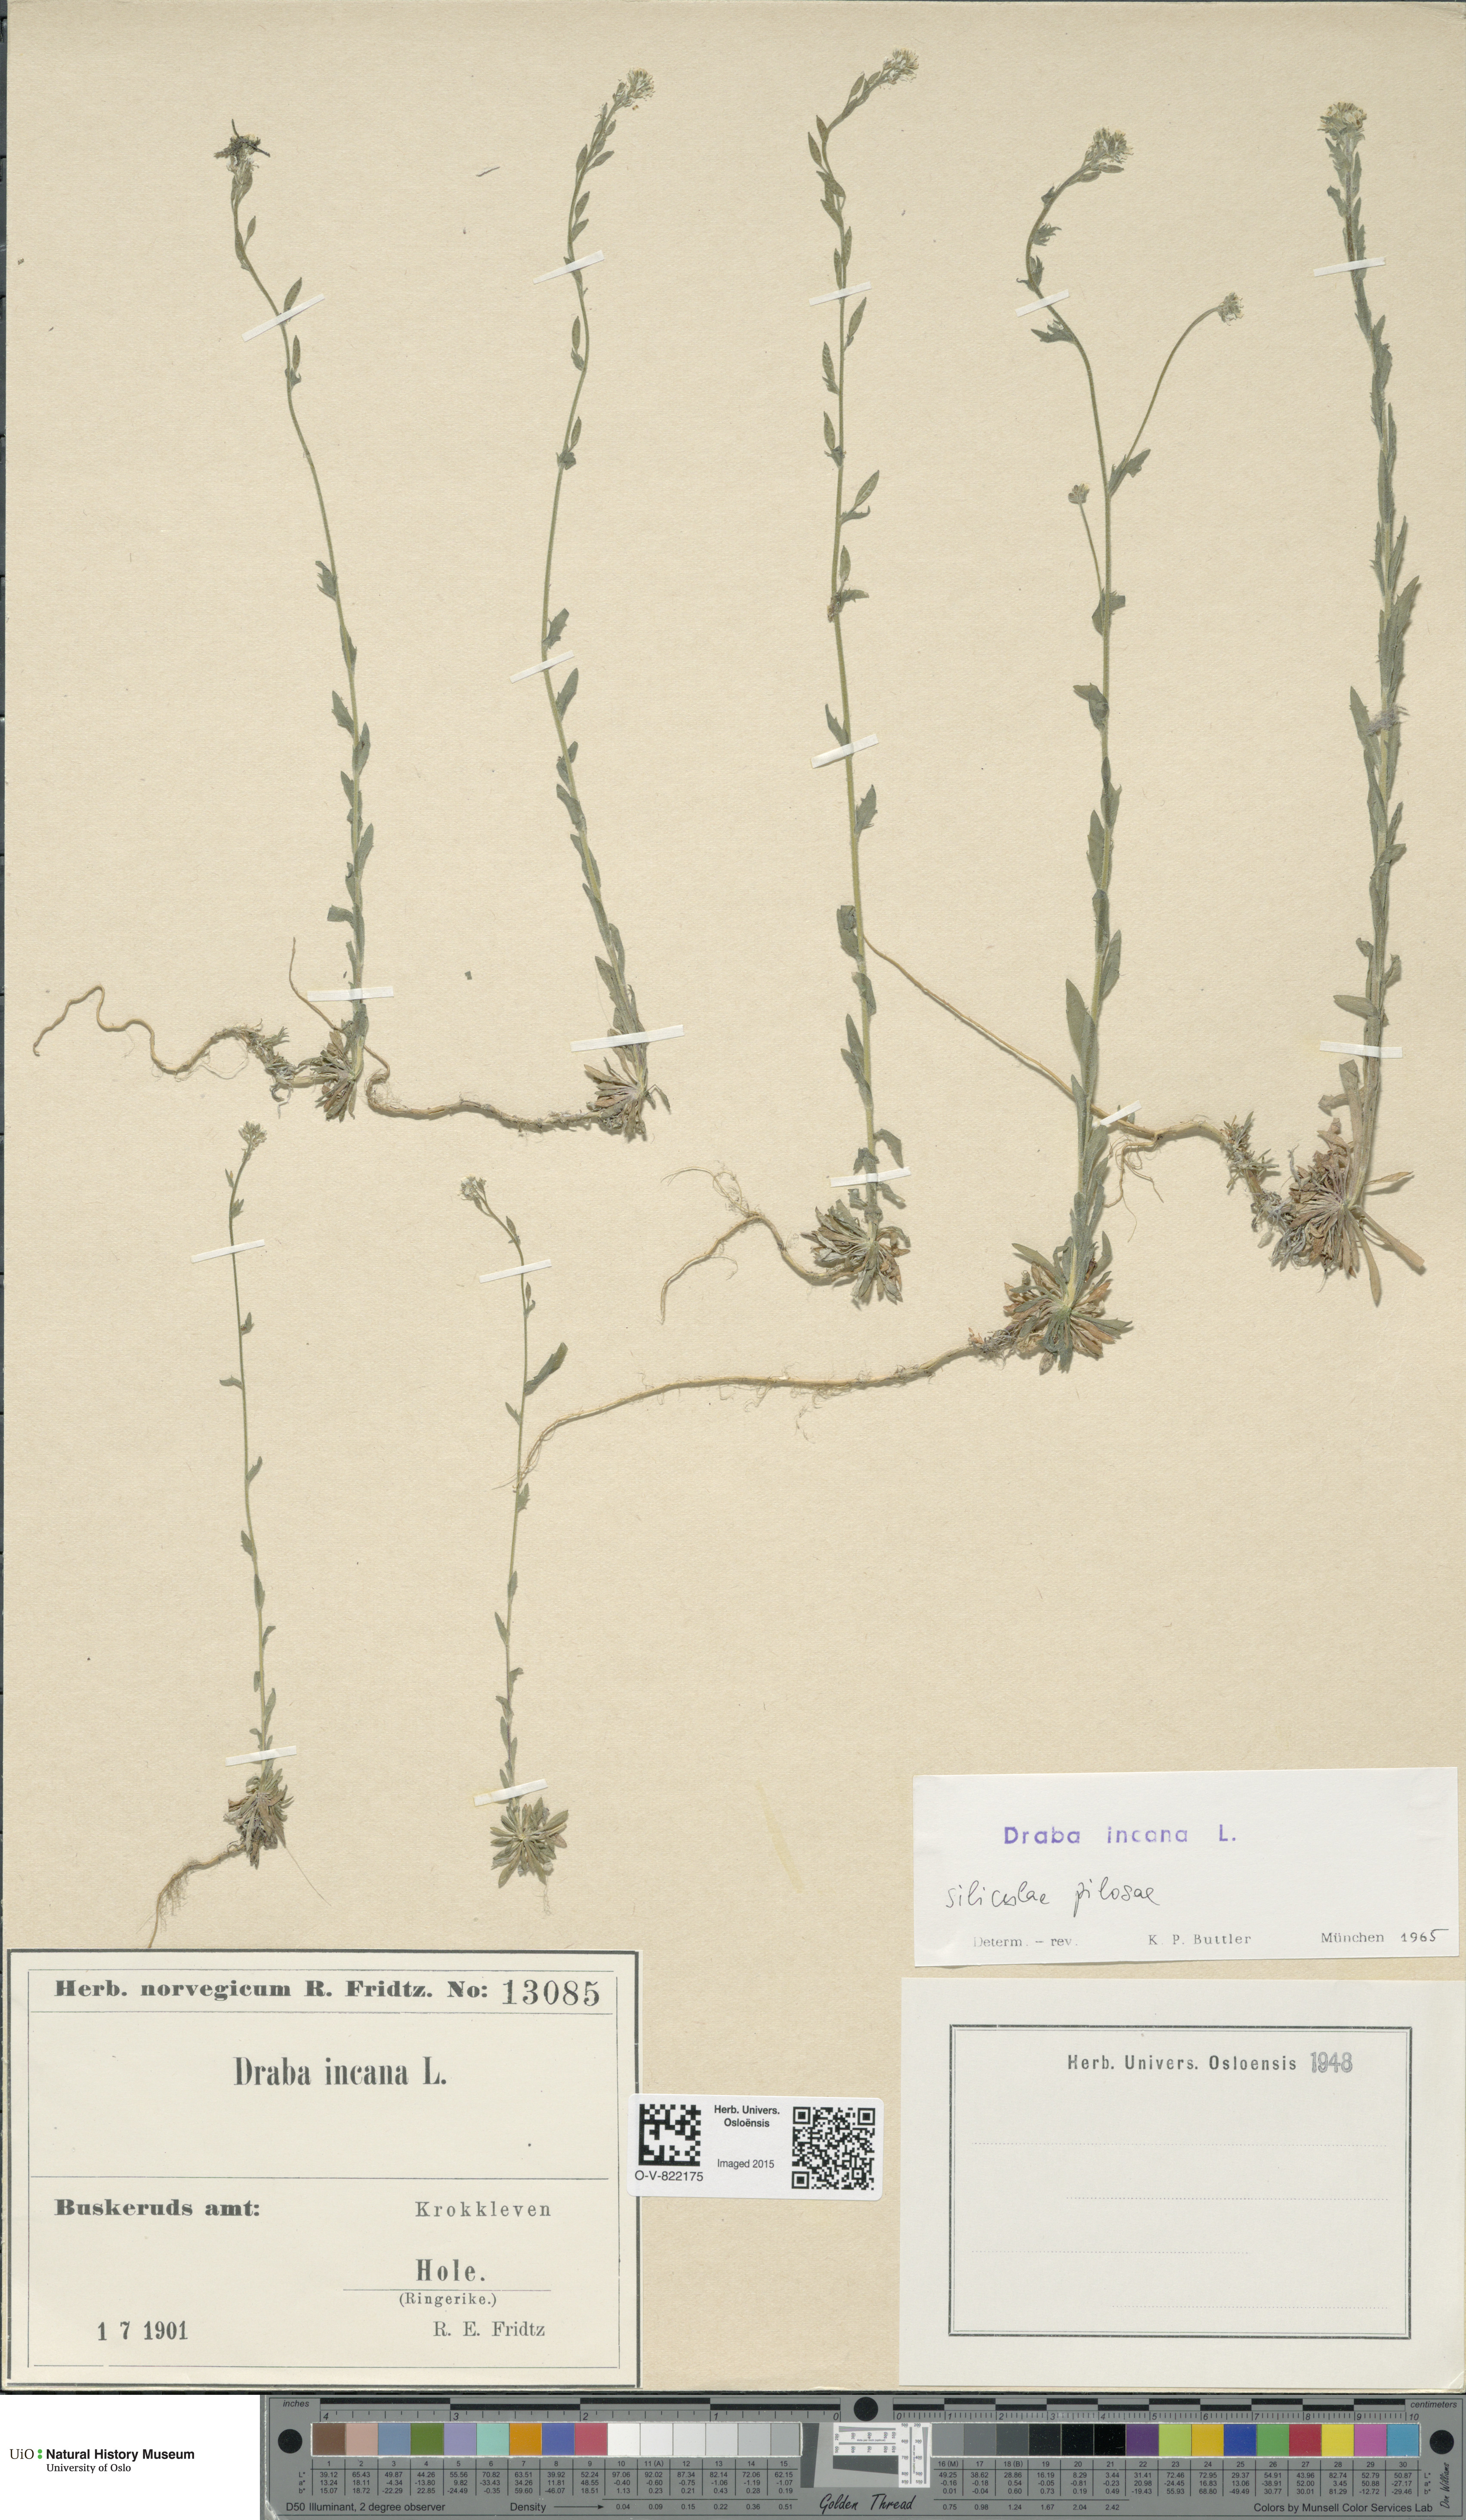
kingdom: Plantae
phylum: Tracheophyta
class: Magnoliopsida
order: Brassicales
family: Brassicaceae
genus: Draba
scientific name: Draba incana
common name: Hoary whitlow-grass
